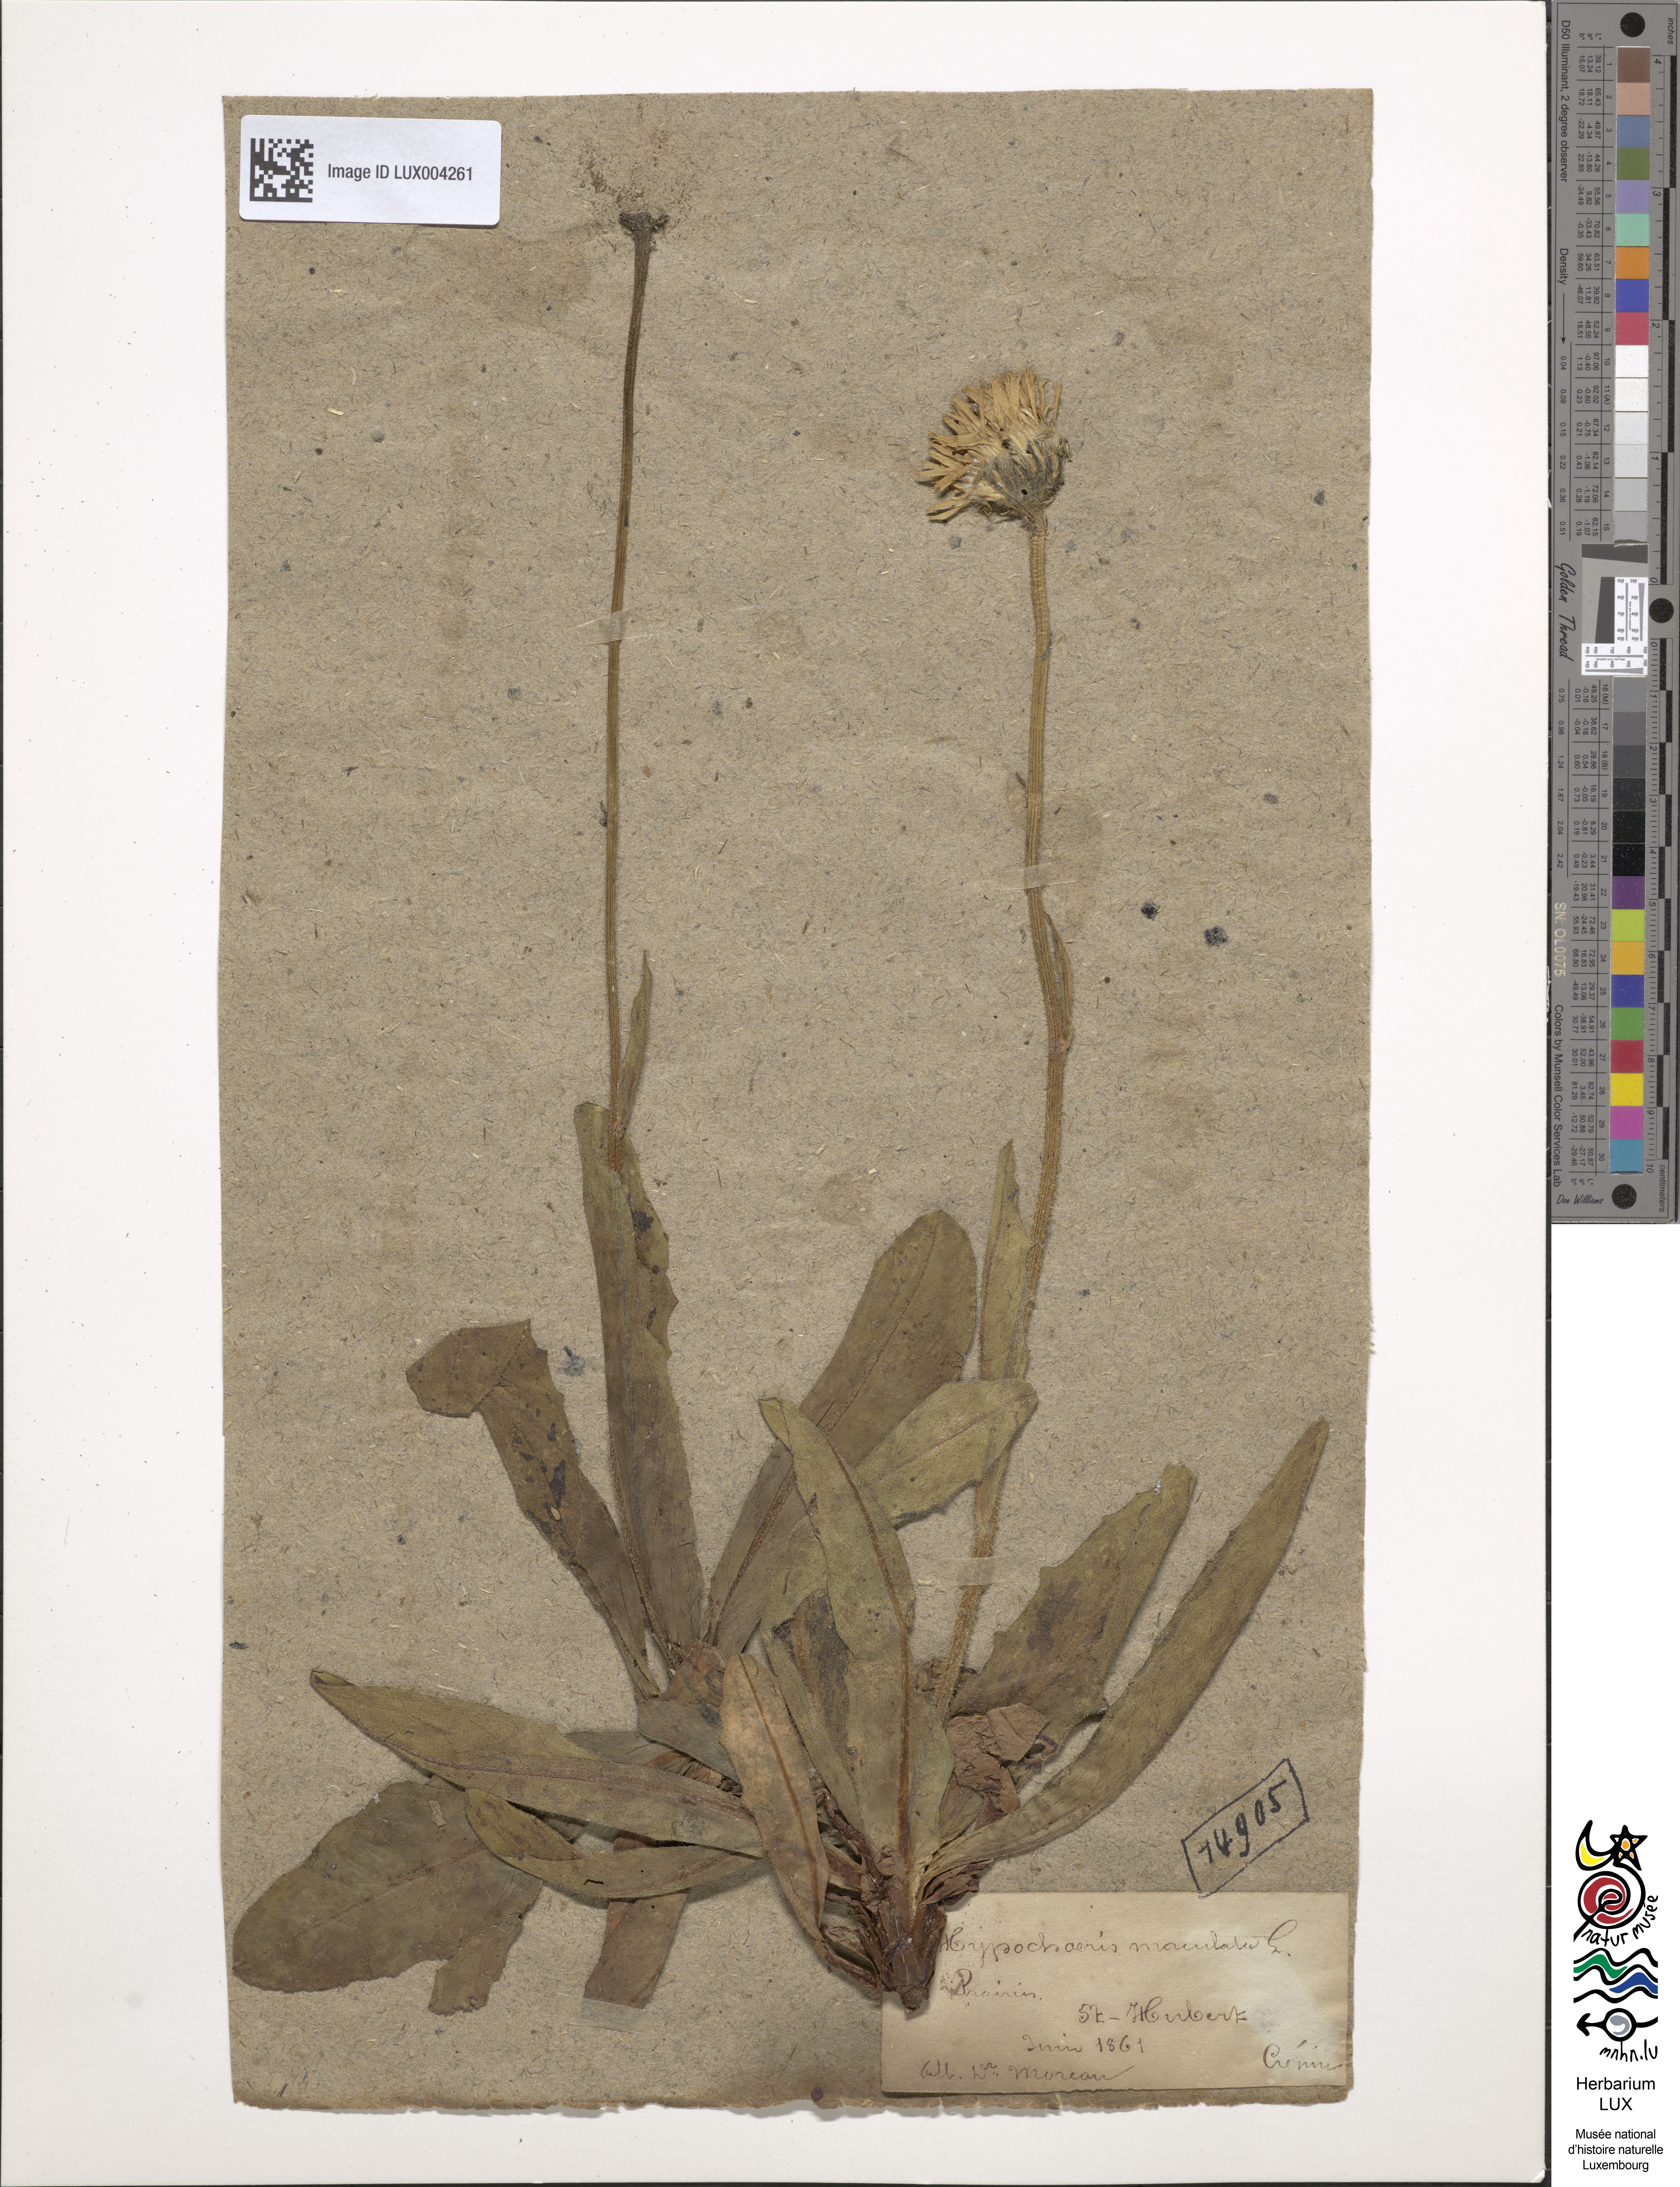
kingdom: Plantae
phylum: Tracheophyta
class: Magnoliopsida
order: Asterales
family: Asteraceae
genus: Trommsdorffia
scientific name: Trommsdorffia maculata
